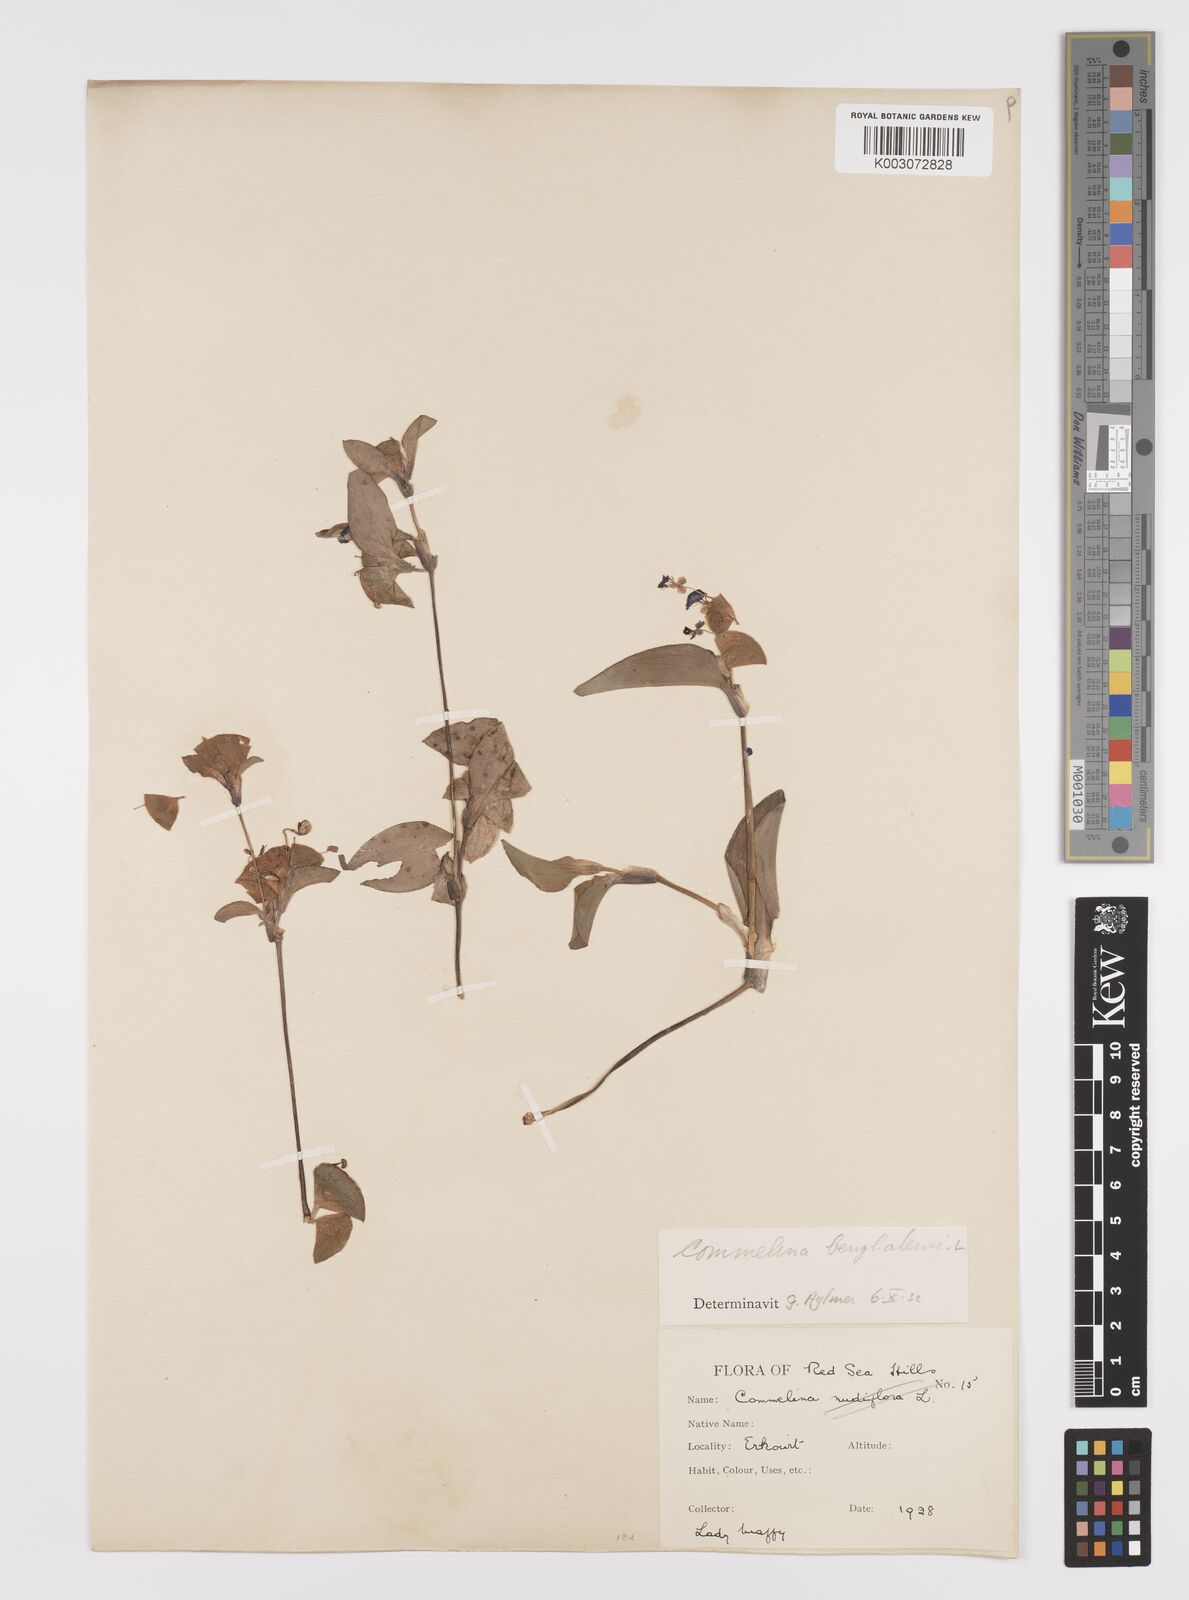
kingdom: Plantae
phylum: Tracheophyta
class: Liliopsida
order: Commelinales
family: Commelinaceae
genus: Commelina
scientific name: Commelina benghalensis
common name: Jio
